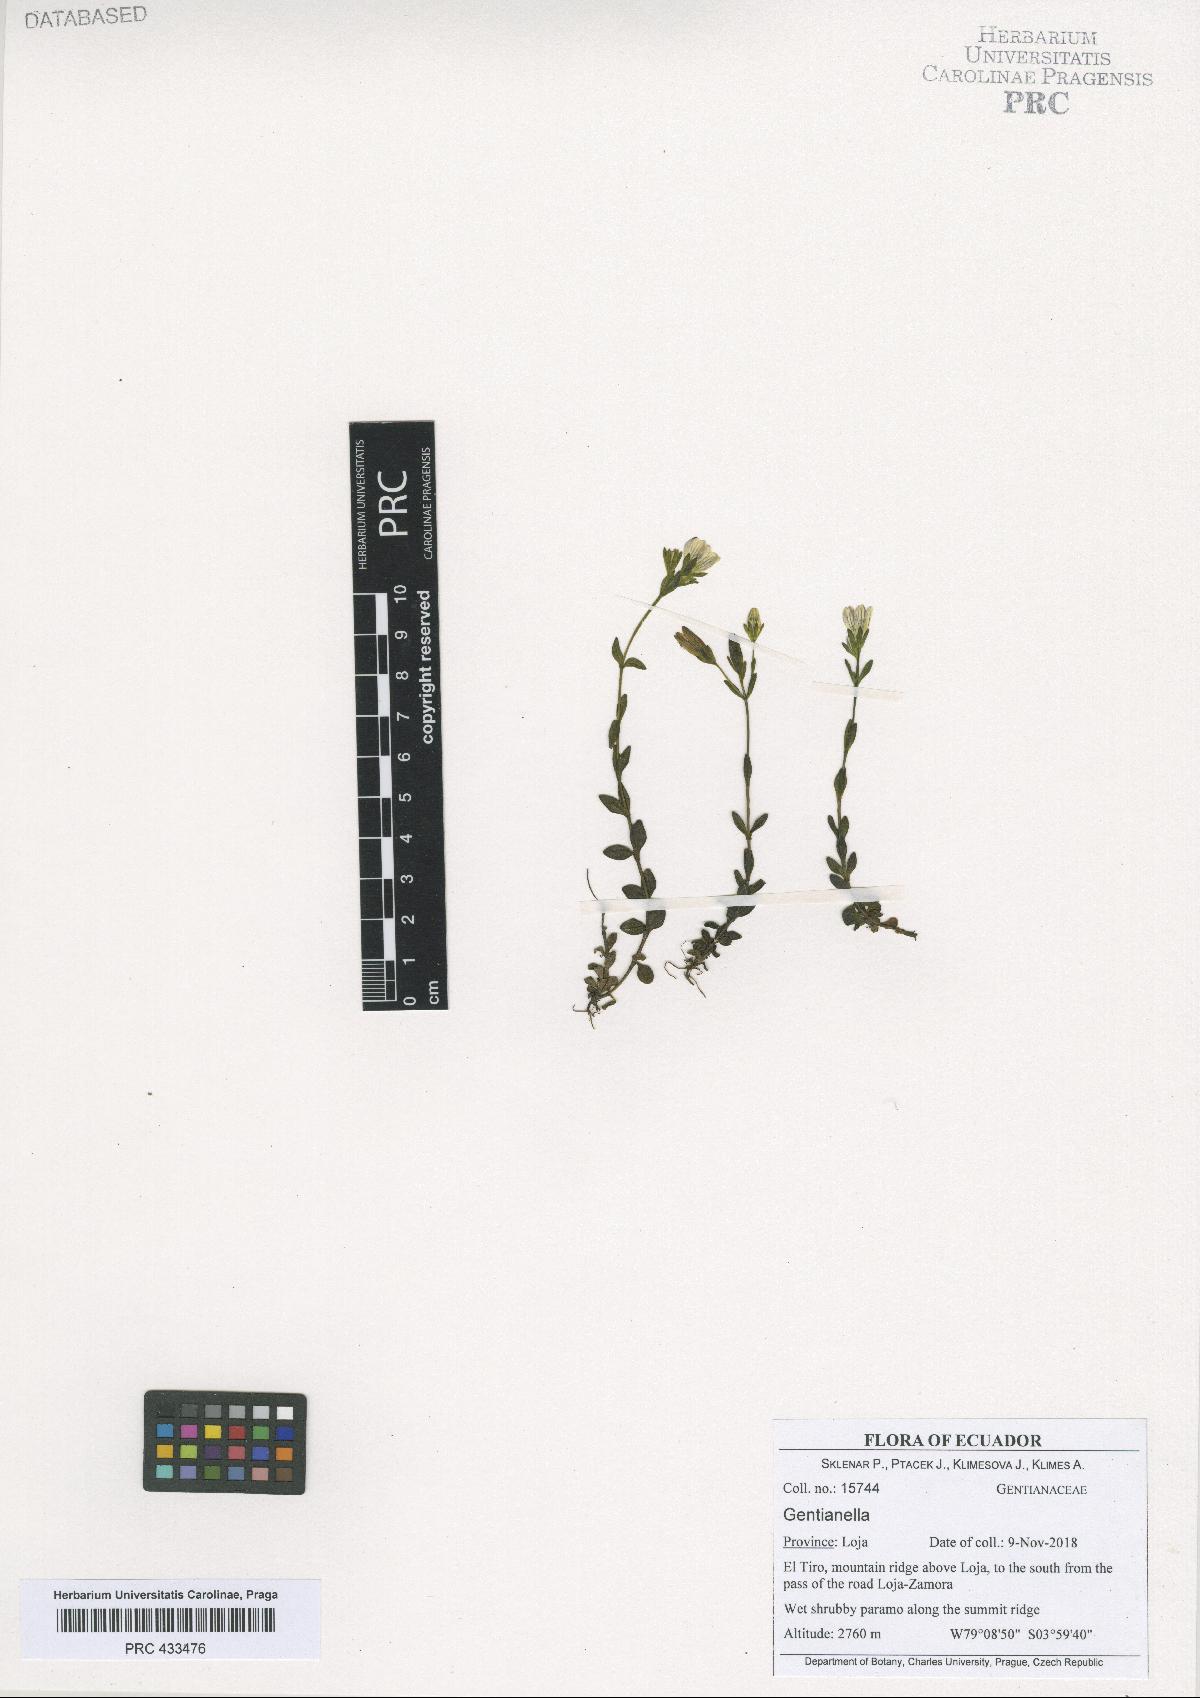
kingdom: Plantae
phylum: Tracheophyta
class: Magnoliopsida
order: Gentianales
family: Gentianaceae
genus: Gentianella
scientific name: Gentianella
